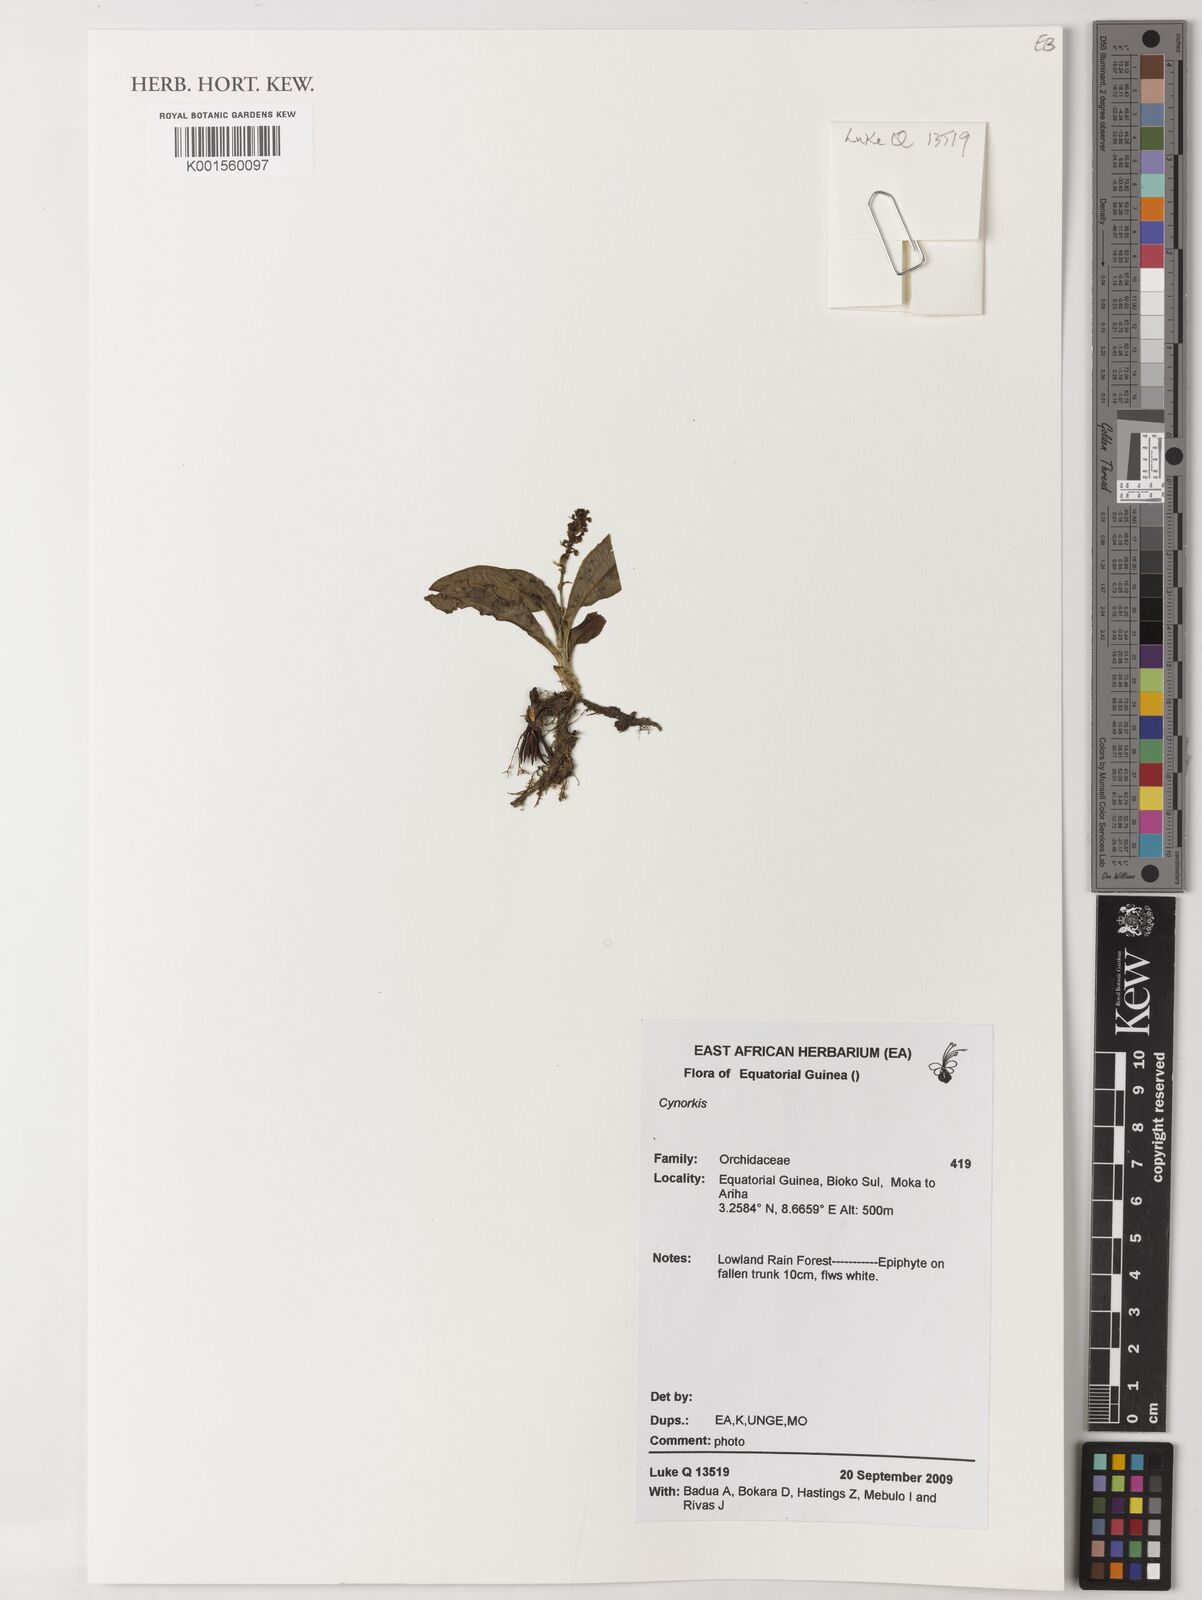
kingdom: Plantae
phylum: Tracheophyta
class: Liliopsida
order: Asparagales
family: Orchidaceae
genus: Cynorkis
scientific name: Cynorkis
